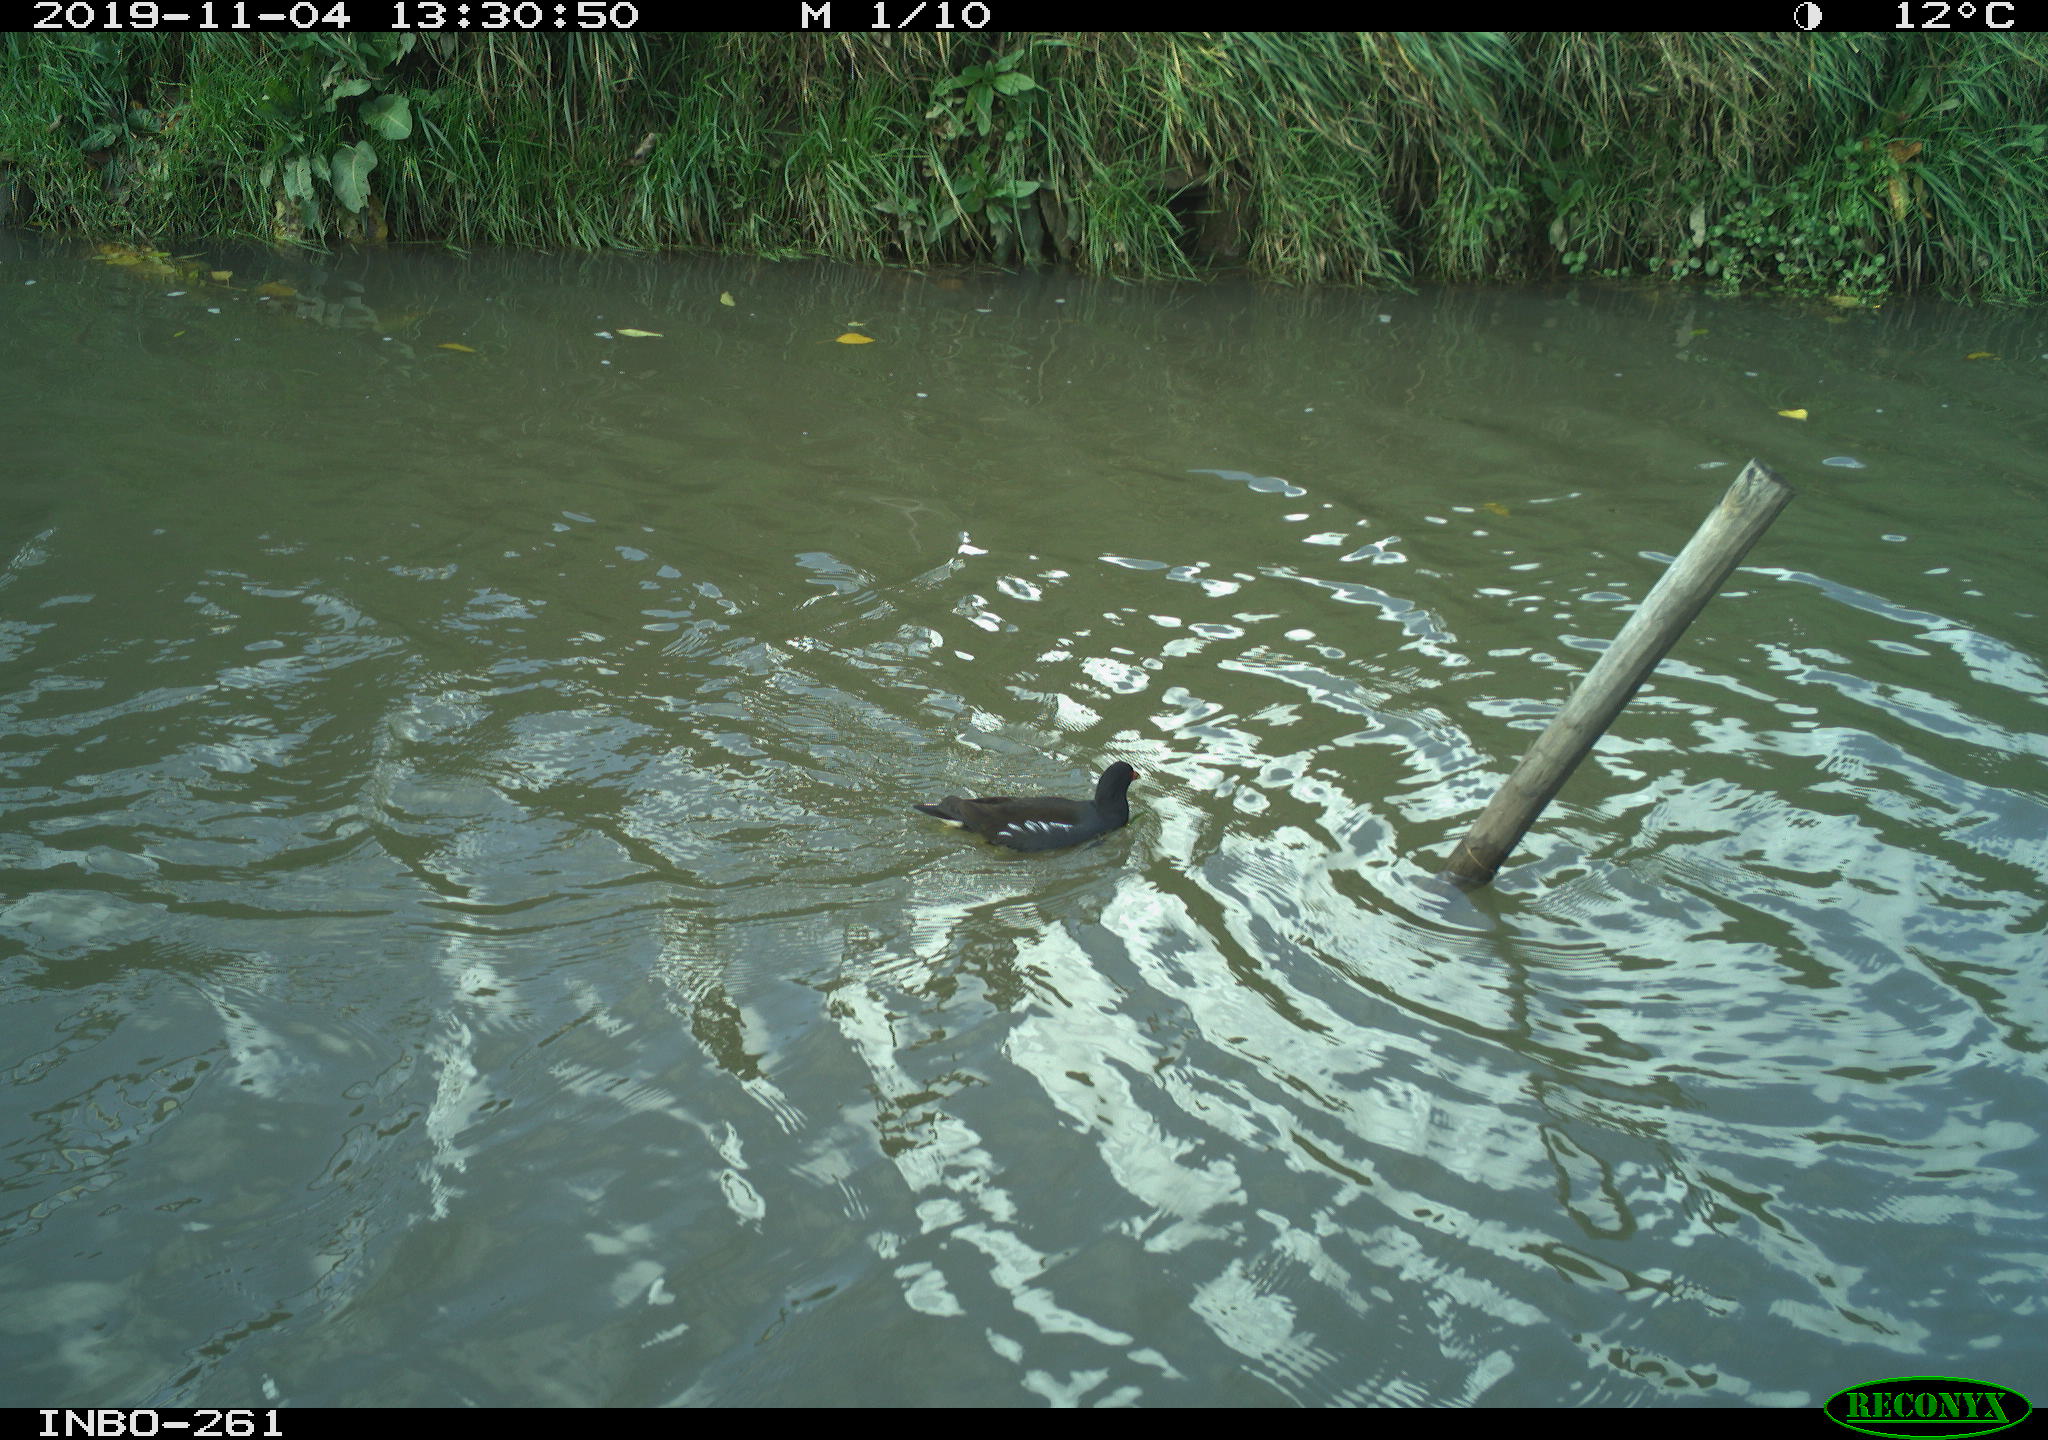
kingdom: Animalia
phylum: Chordata
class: Aves
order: Gruiformes
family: Rallidae
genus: Gallinula
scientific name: Gallinula chloropus
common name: Common moorhen
